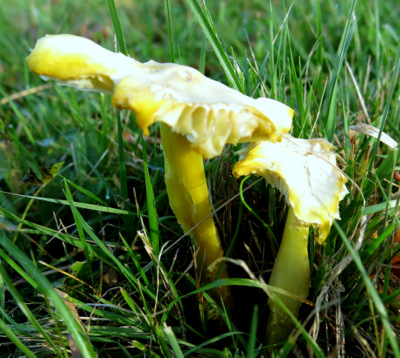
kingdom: Fungi
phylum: Basidiomycota
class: Agaricomycetes
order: Agaricales
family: Hygrophoraceae
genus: Hygrocybe
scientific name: Hygrocybe citrinovirens
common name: grøngul vokshat
